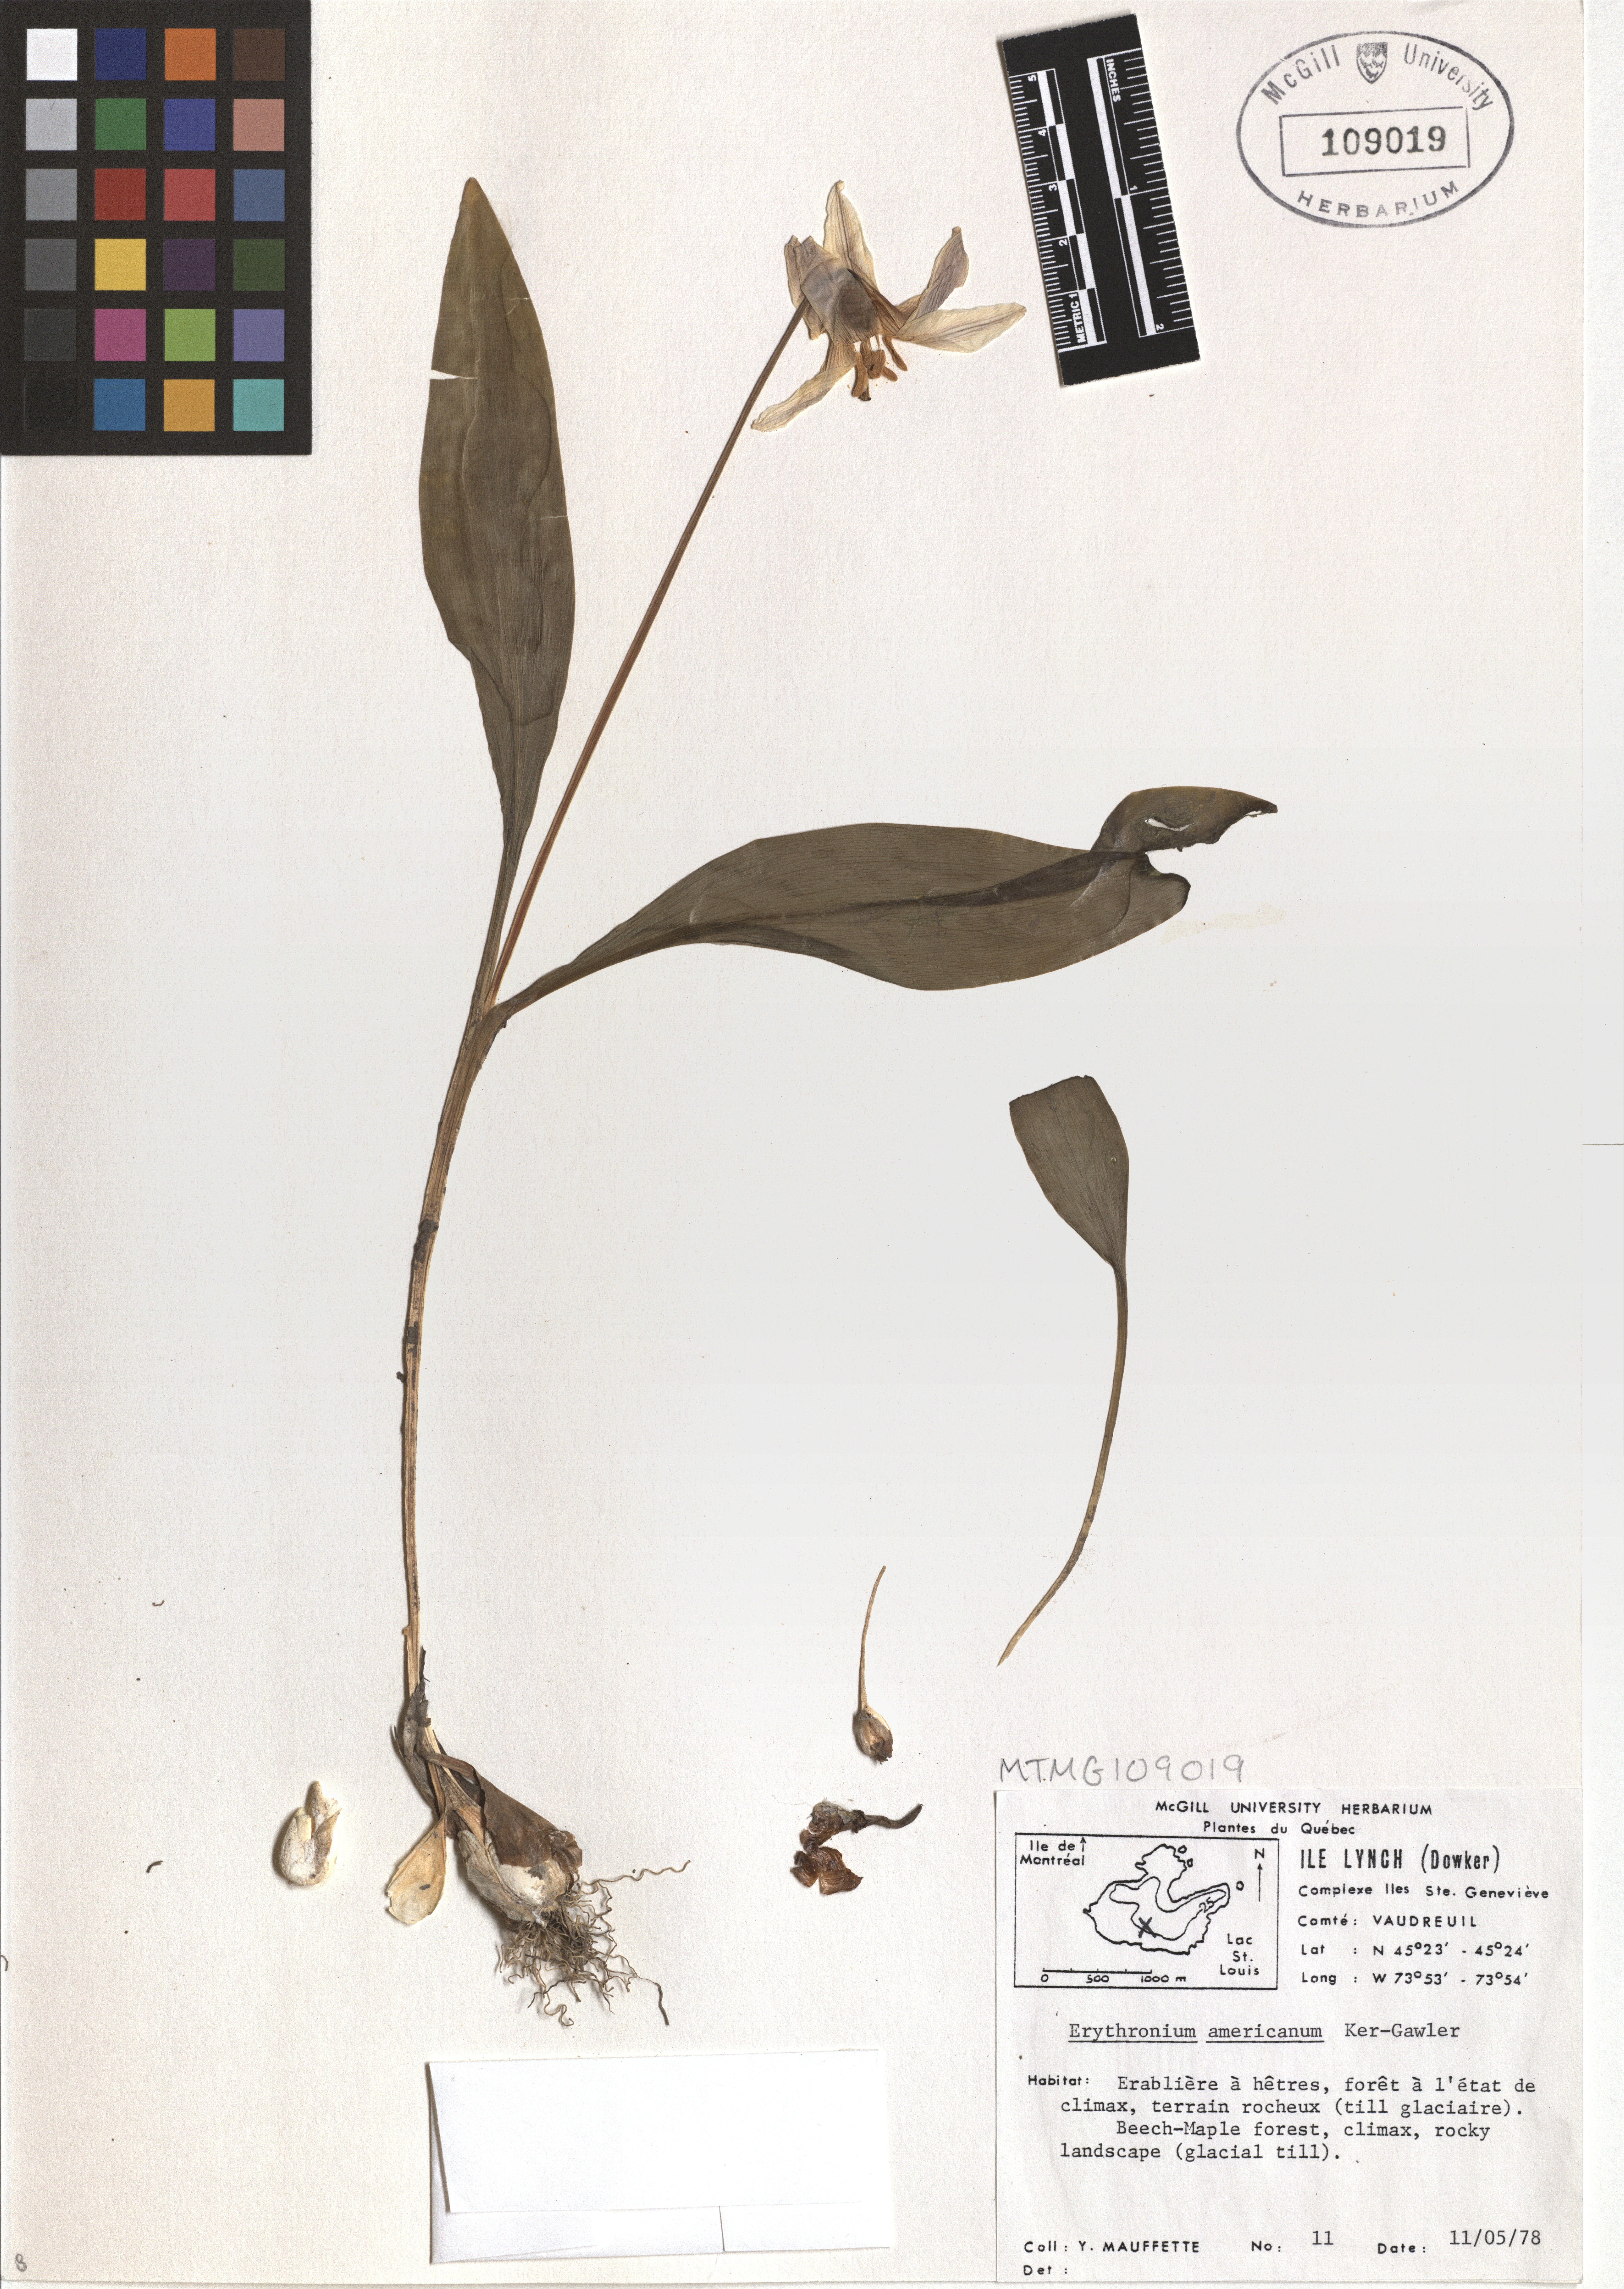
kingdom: Plantae
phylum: Tracheophyta
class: Liliopsida
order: Liliales
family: Liliaceae
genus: Erythronium
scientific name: Erythronium americanum
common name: Yellow adder's-tongue
